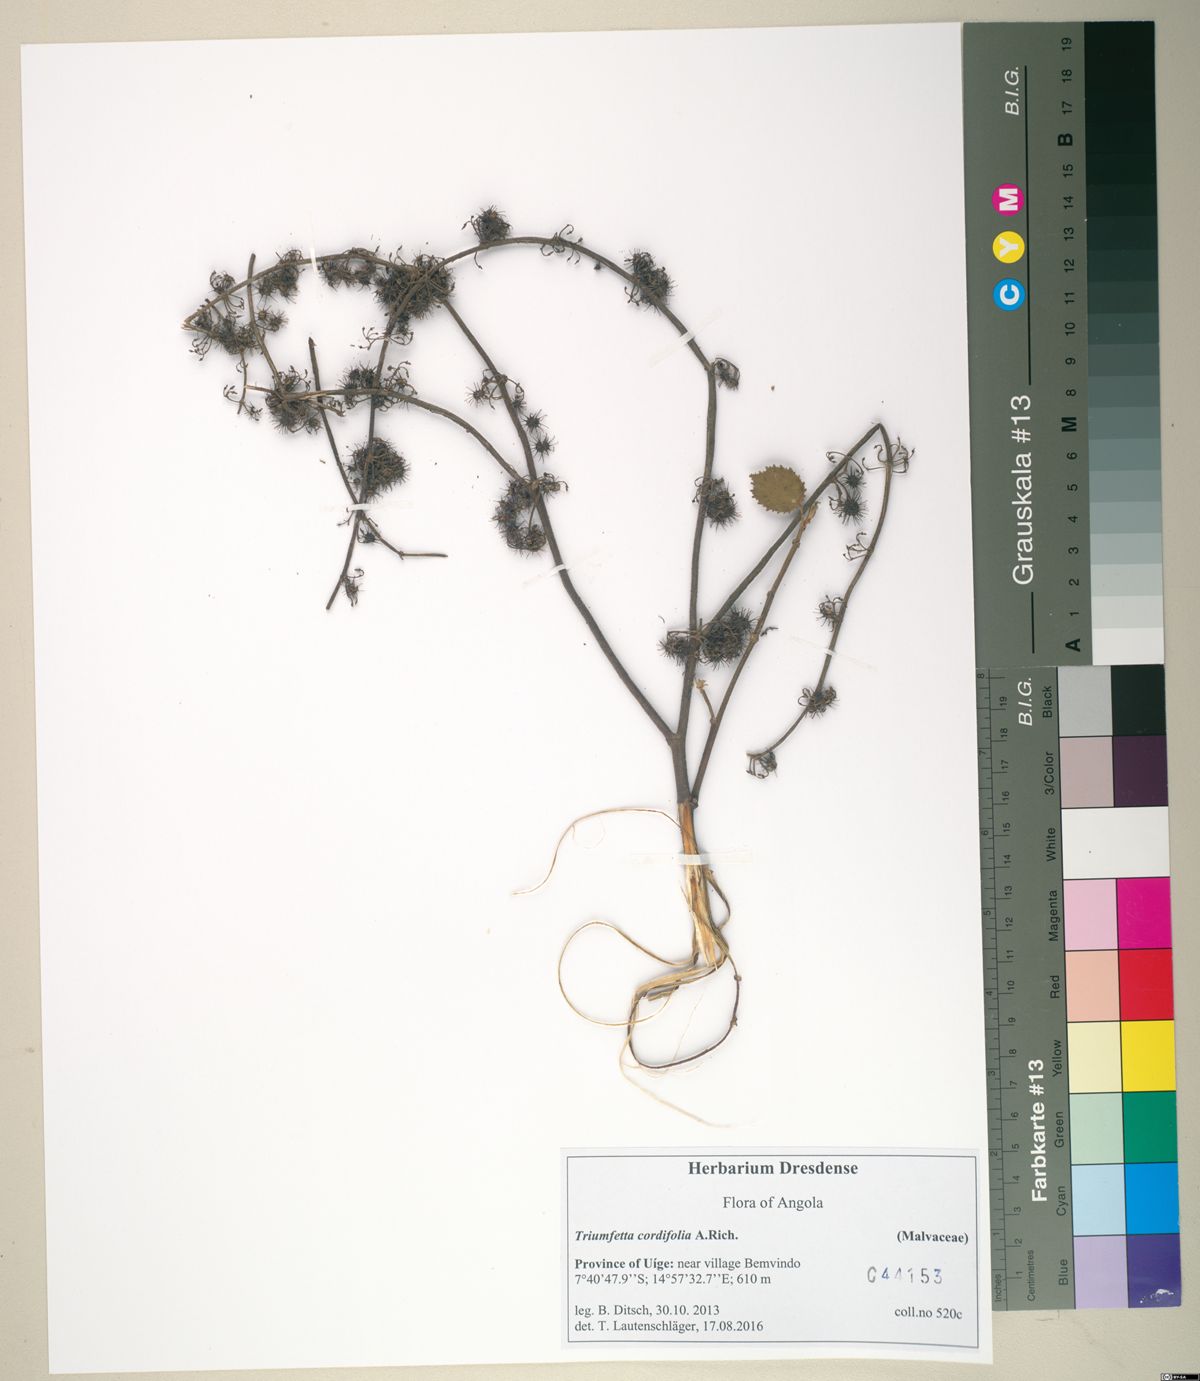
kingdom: Plantae
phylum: Tracheophyta
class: Magnoliopsida
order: Malvales
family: Malvaceae
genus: Triumfetta
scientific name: Triumfetta cordifolia
